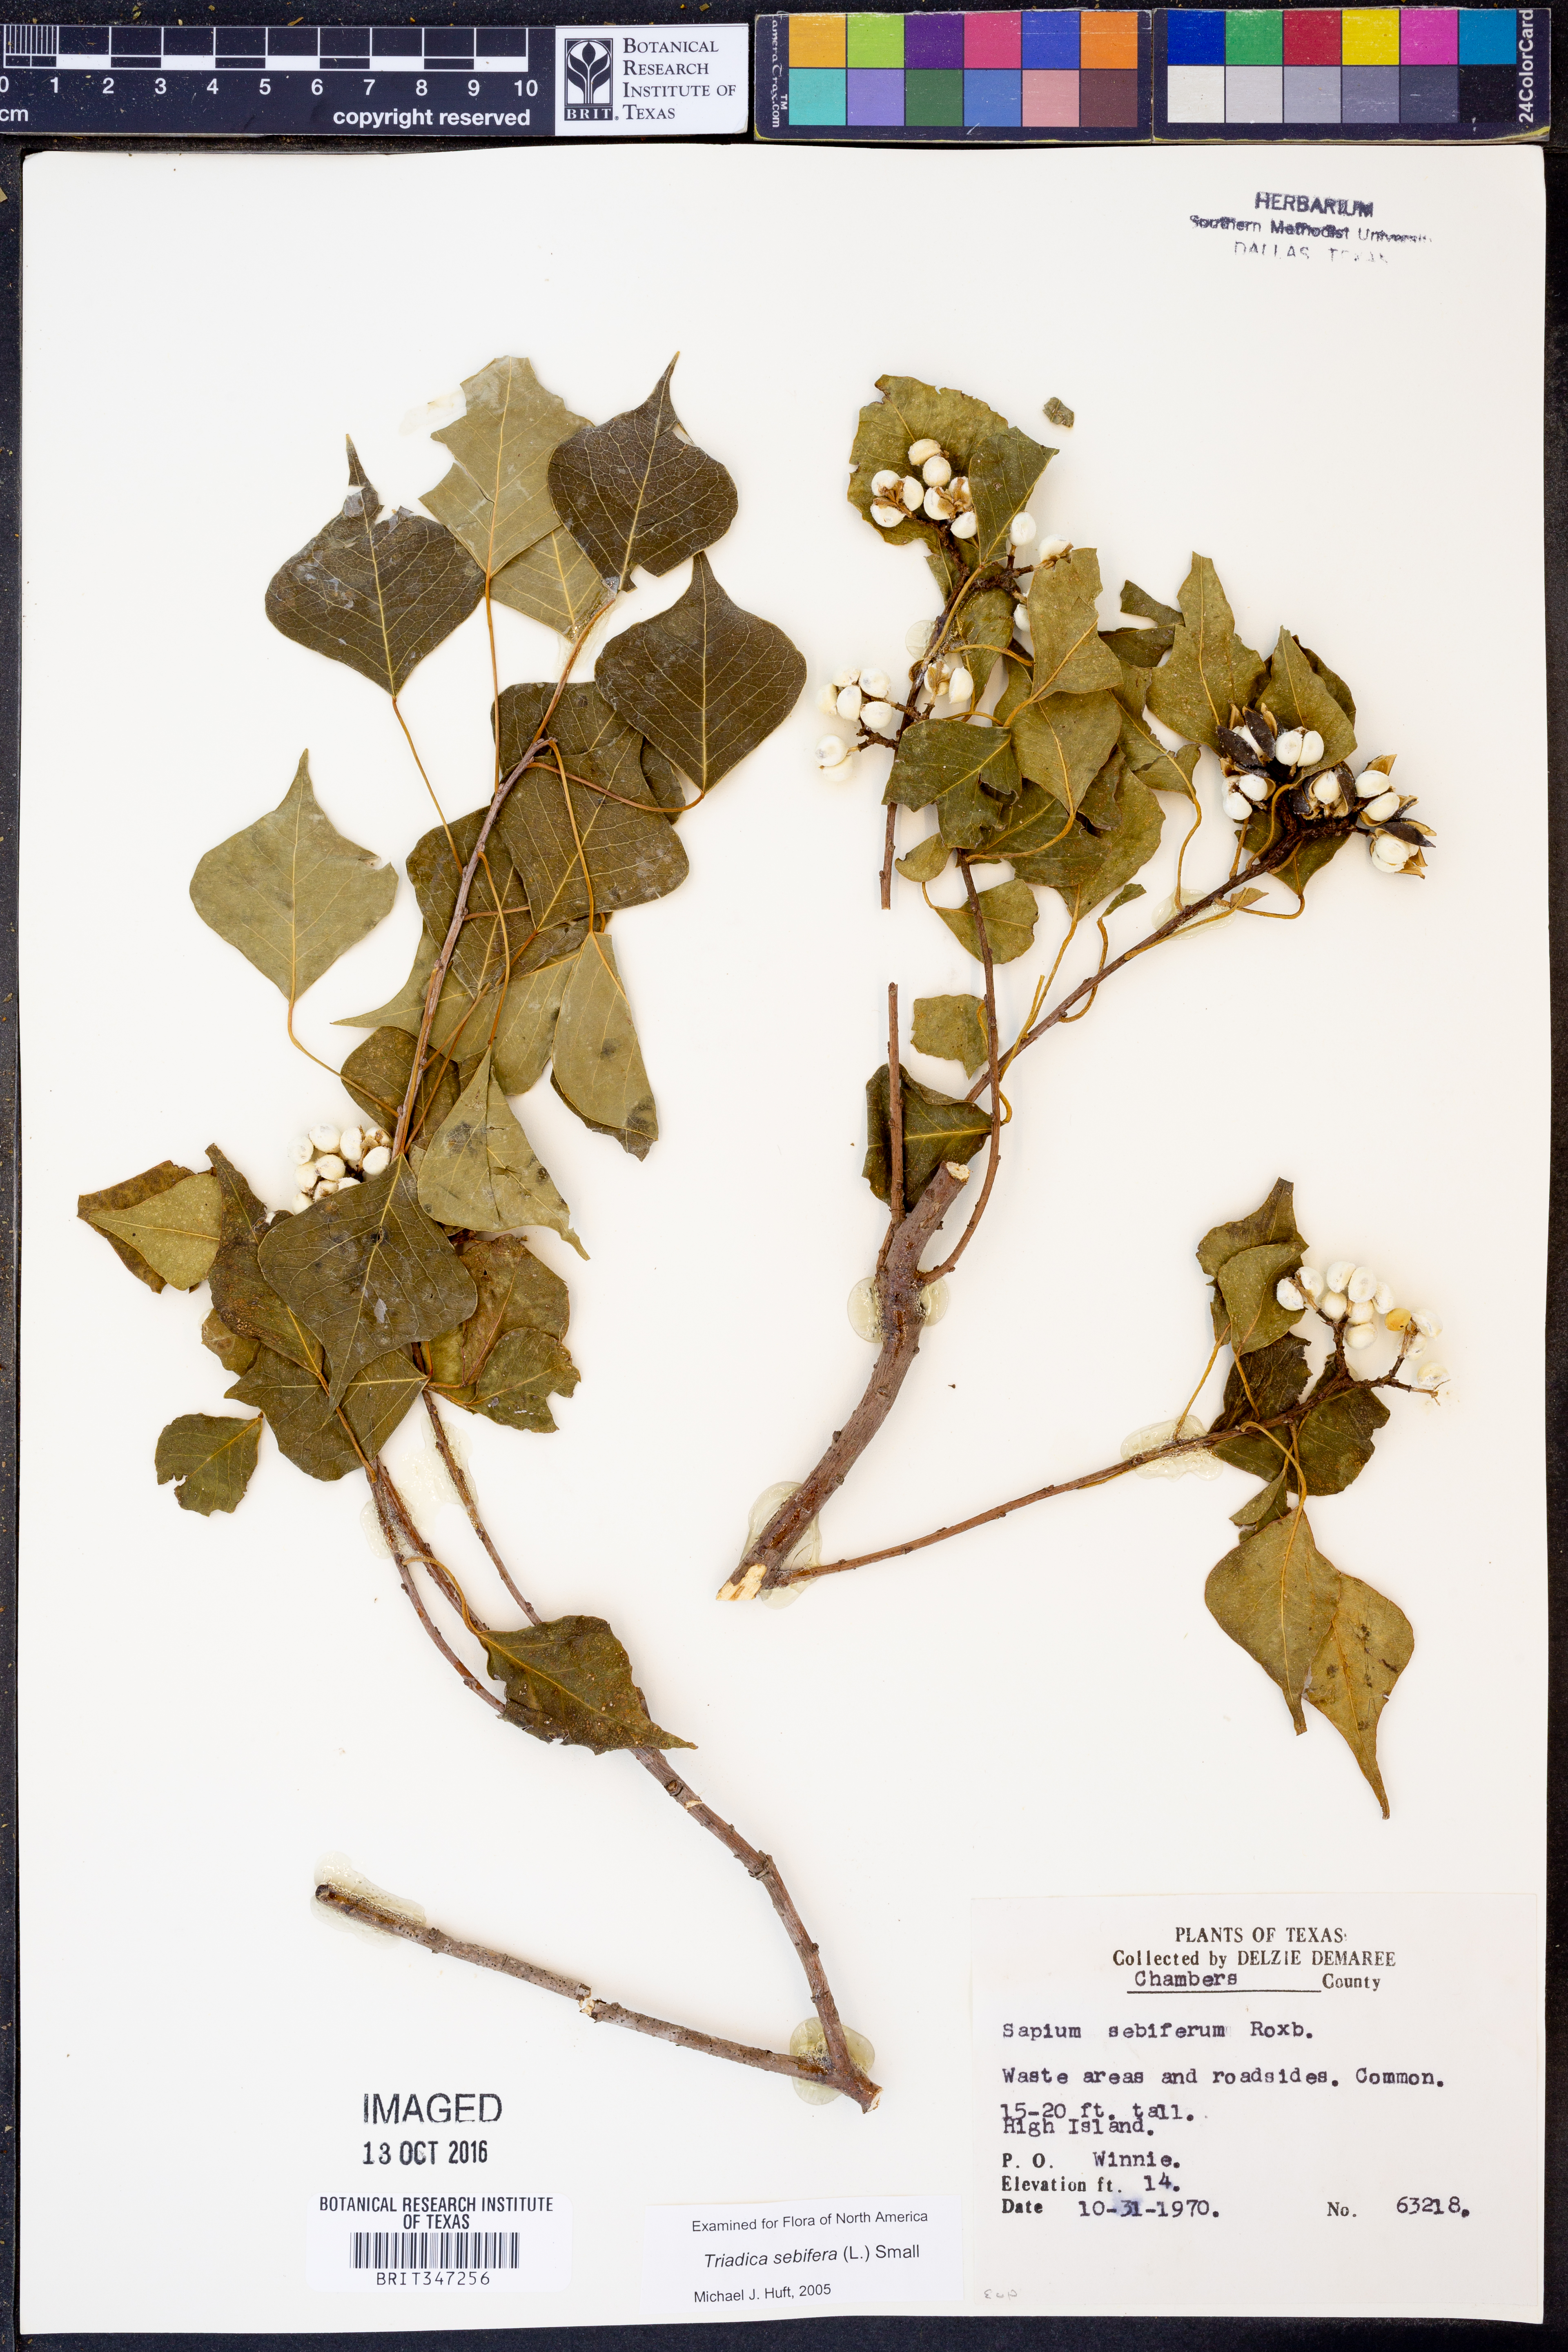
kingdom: Plantae
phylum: Tracheophyta
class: Magnoliopsida
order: Malpighiales
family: Euphorbiaceae
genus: Triadica
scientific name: Triadica sebifera
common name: Chinese tallow
